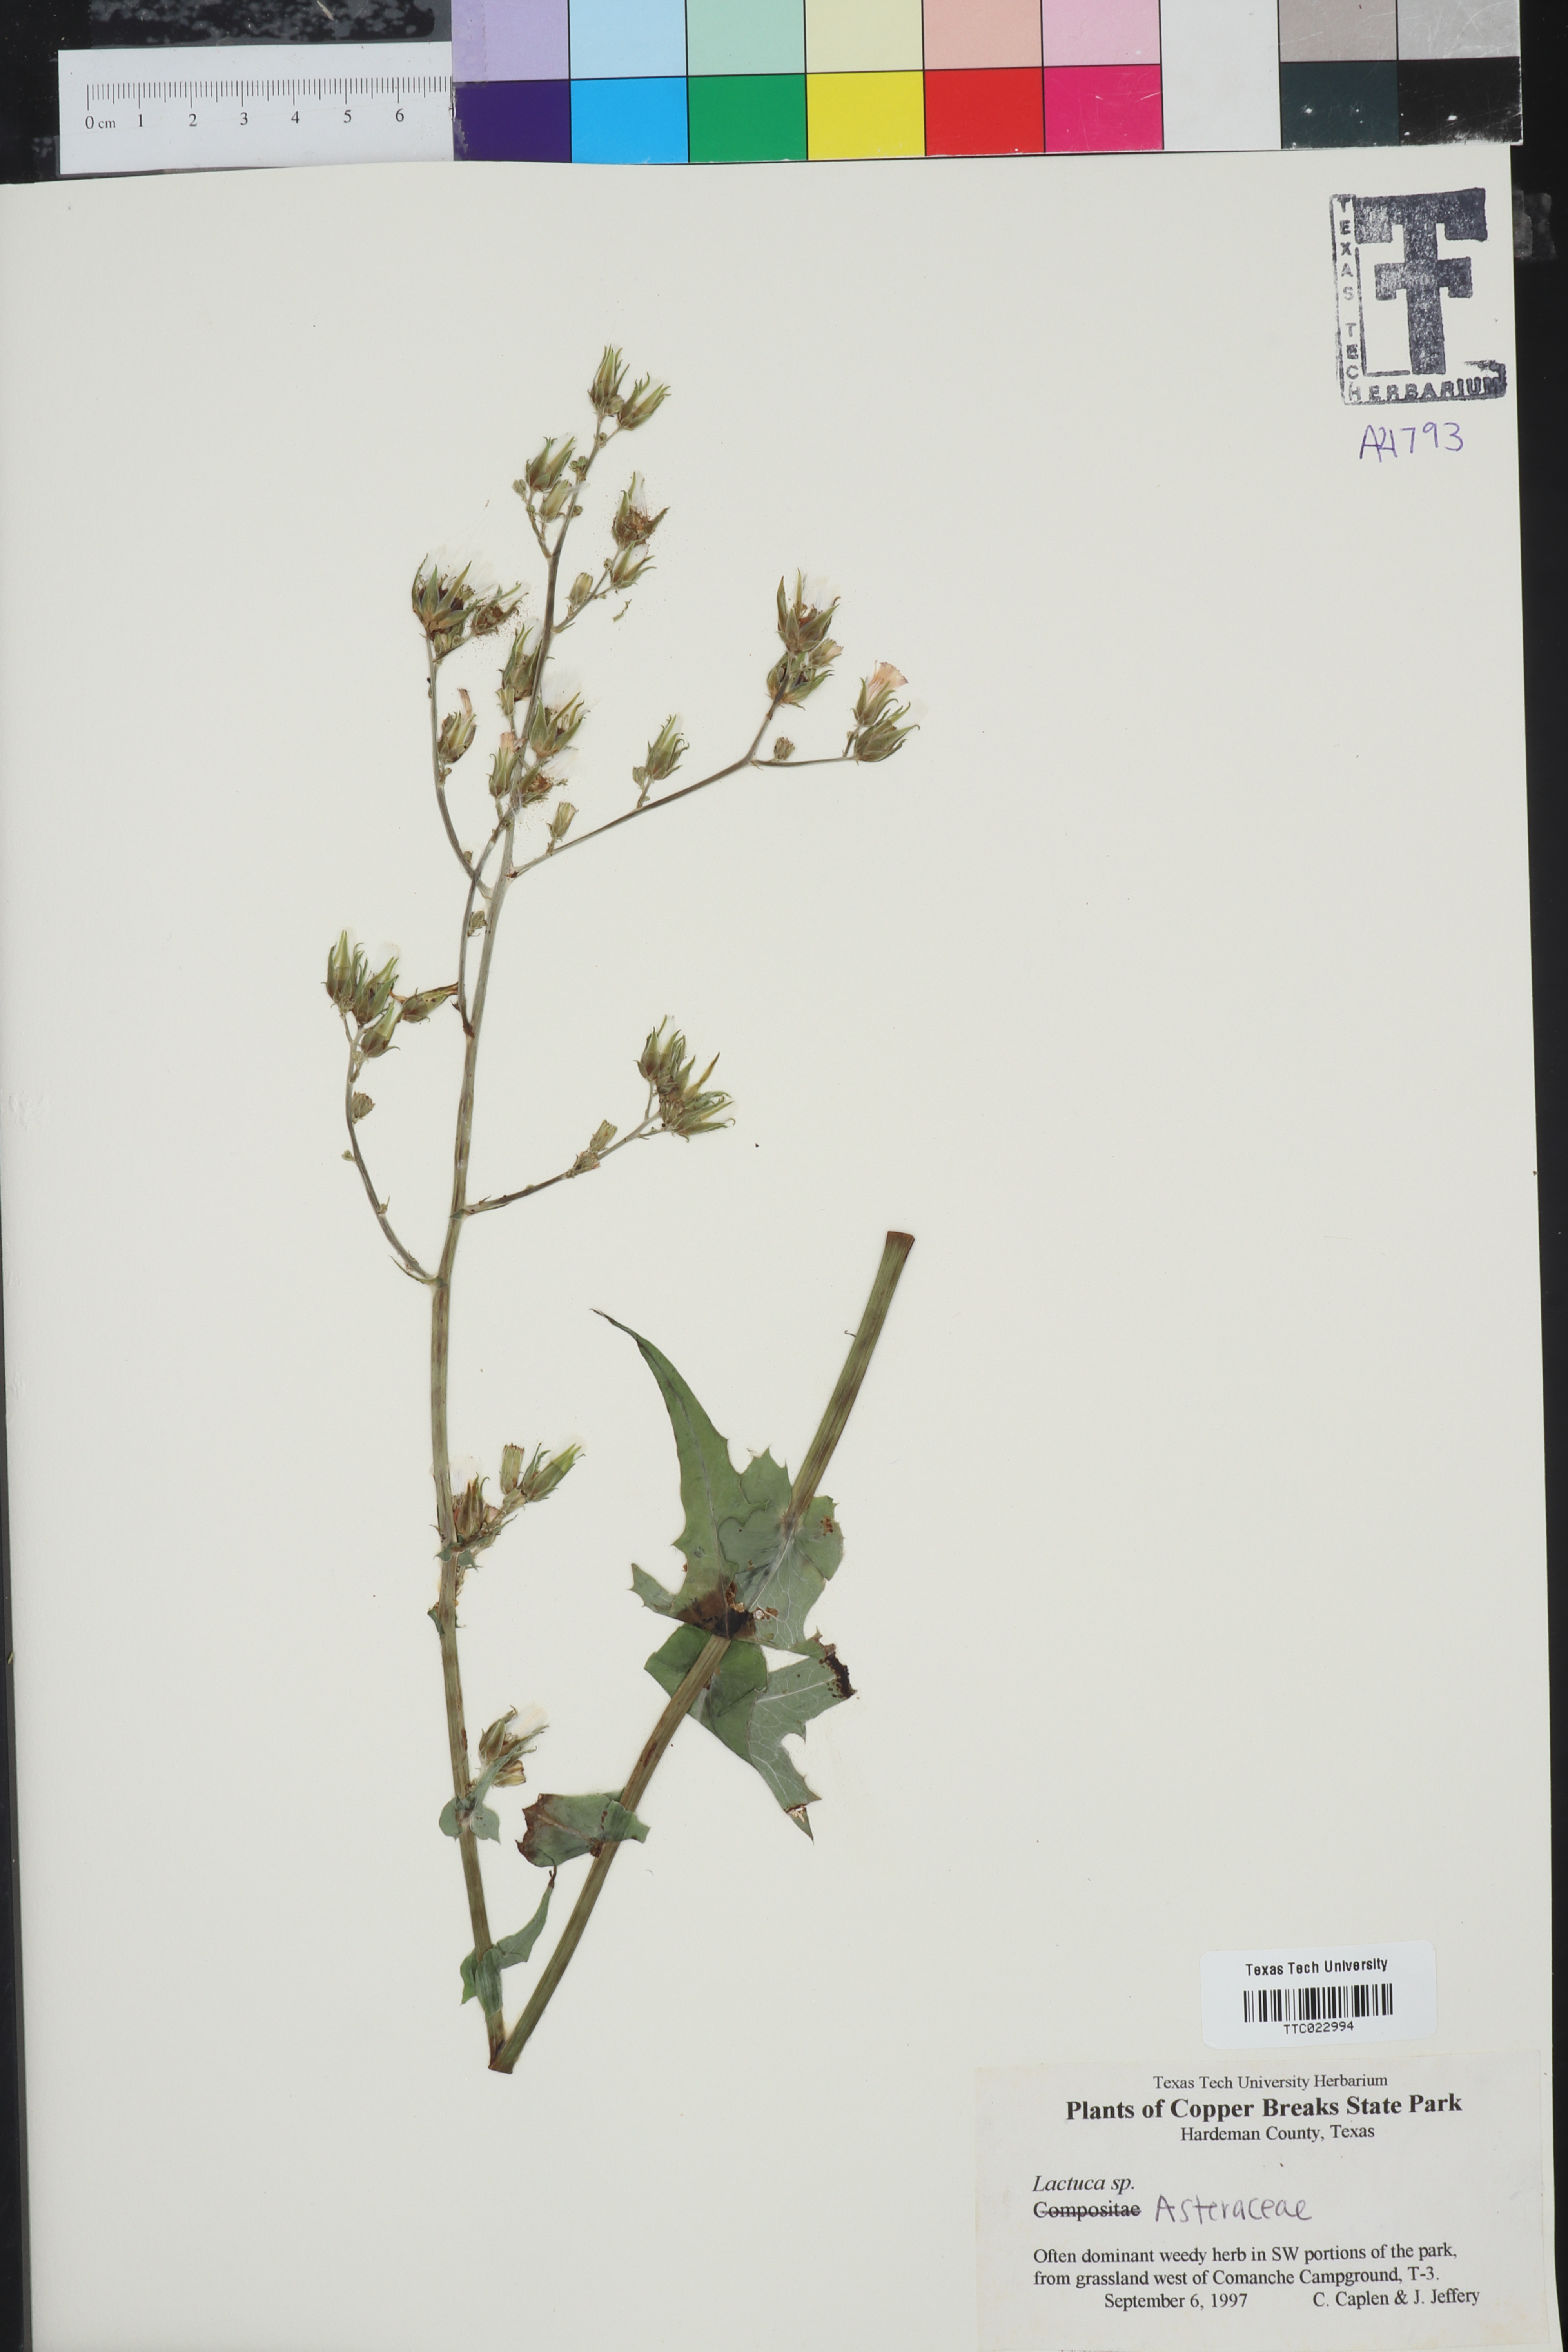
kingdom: Plantae
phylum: Tracheophyta
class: Magnoliopsida
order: Asterales
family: Asteraceae
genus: Lactuca
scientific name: Lactuca
